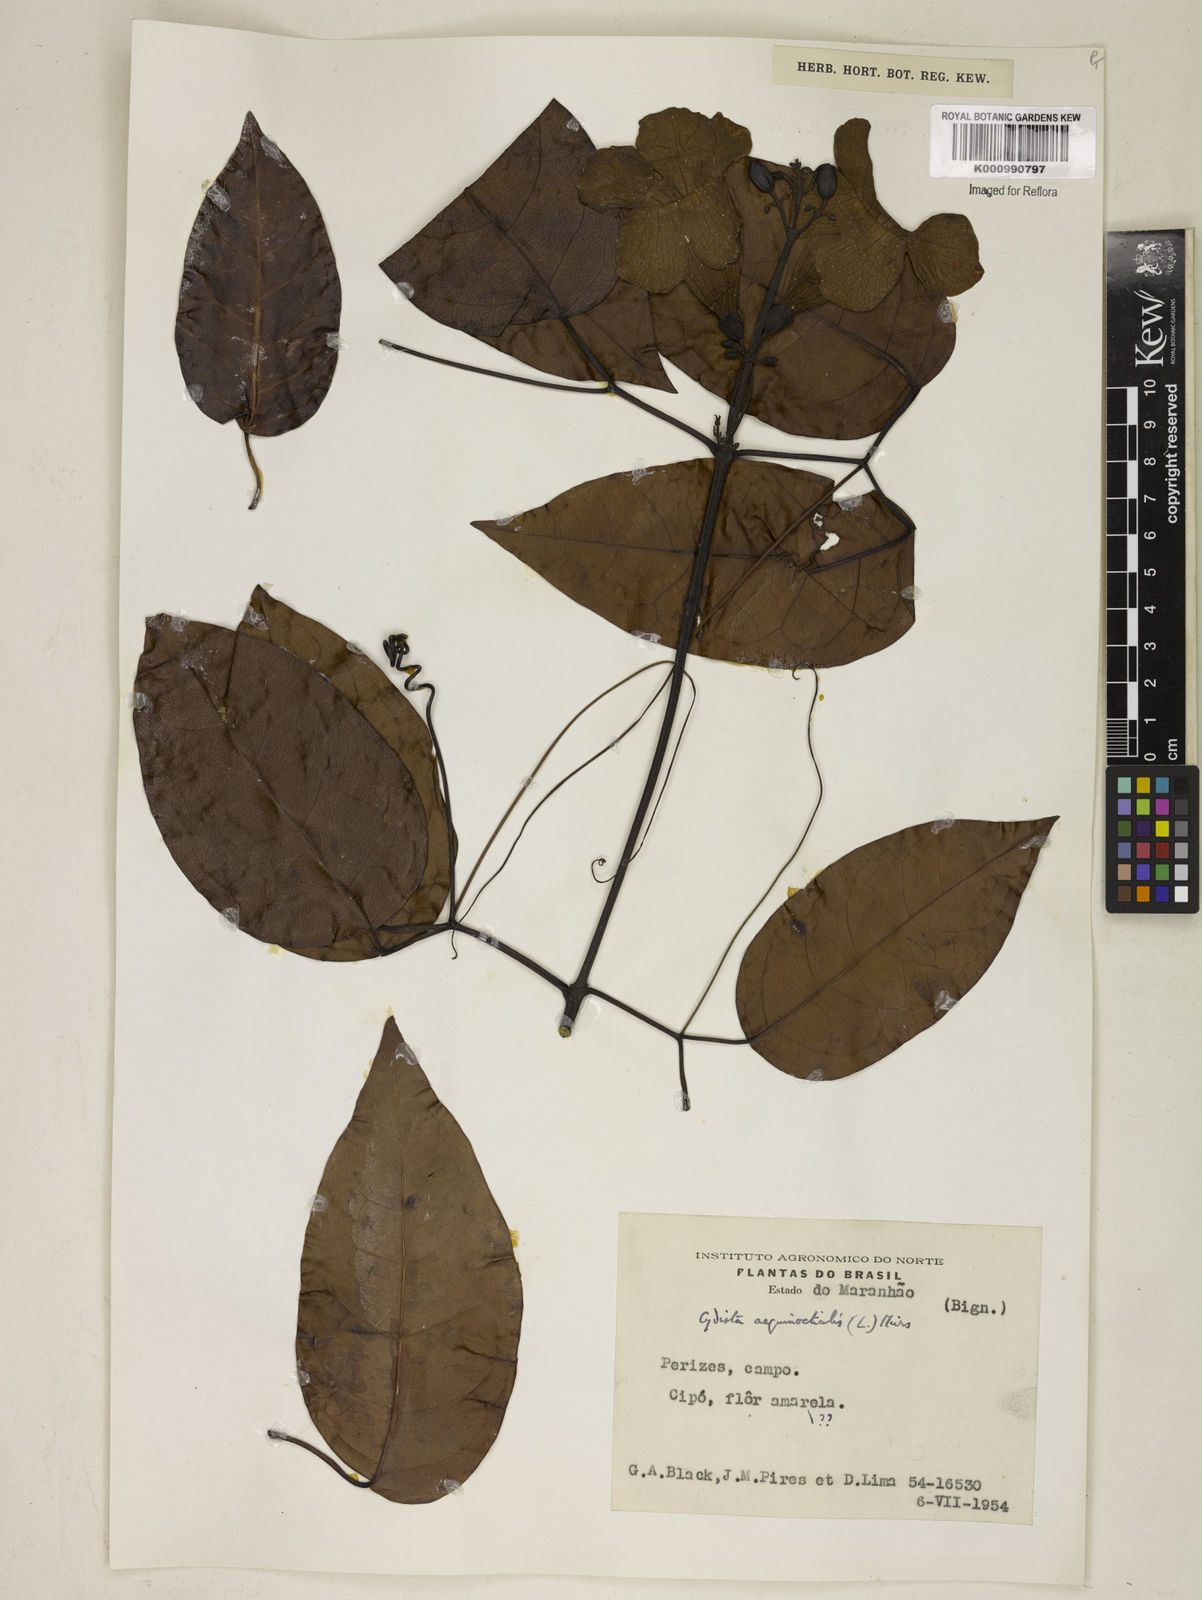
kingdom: Plantae
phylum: Tracheophyta
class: Magnoliopsida
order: Lamiales
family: Bignoniaceae
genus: Bignonia
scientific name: Bignonia aequinoctialis
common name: Garlicvine
